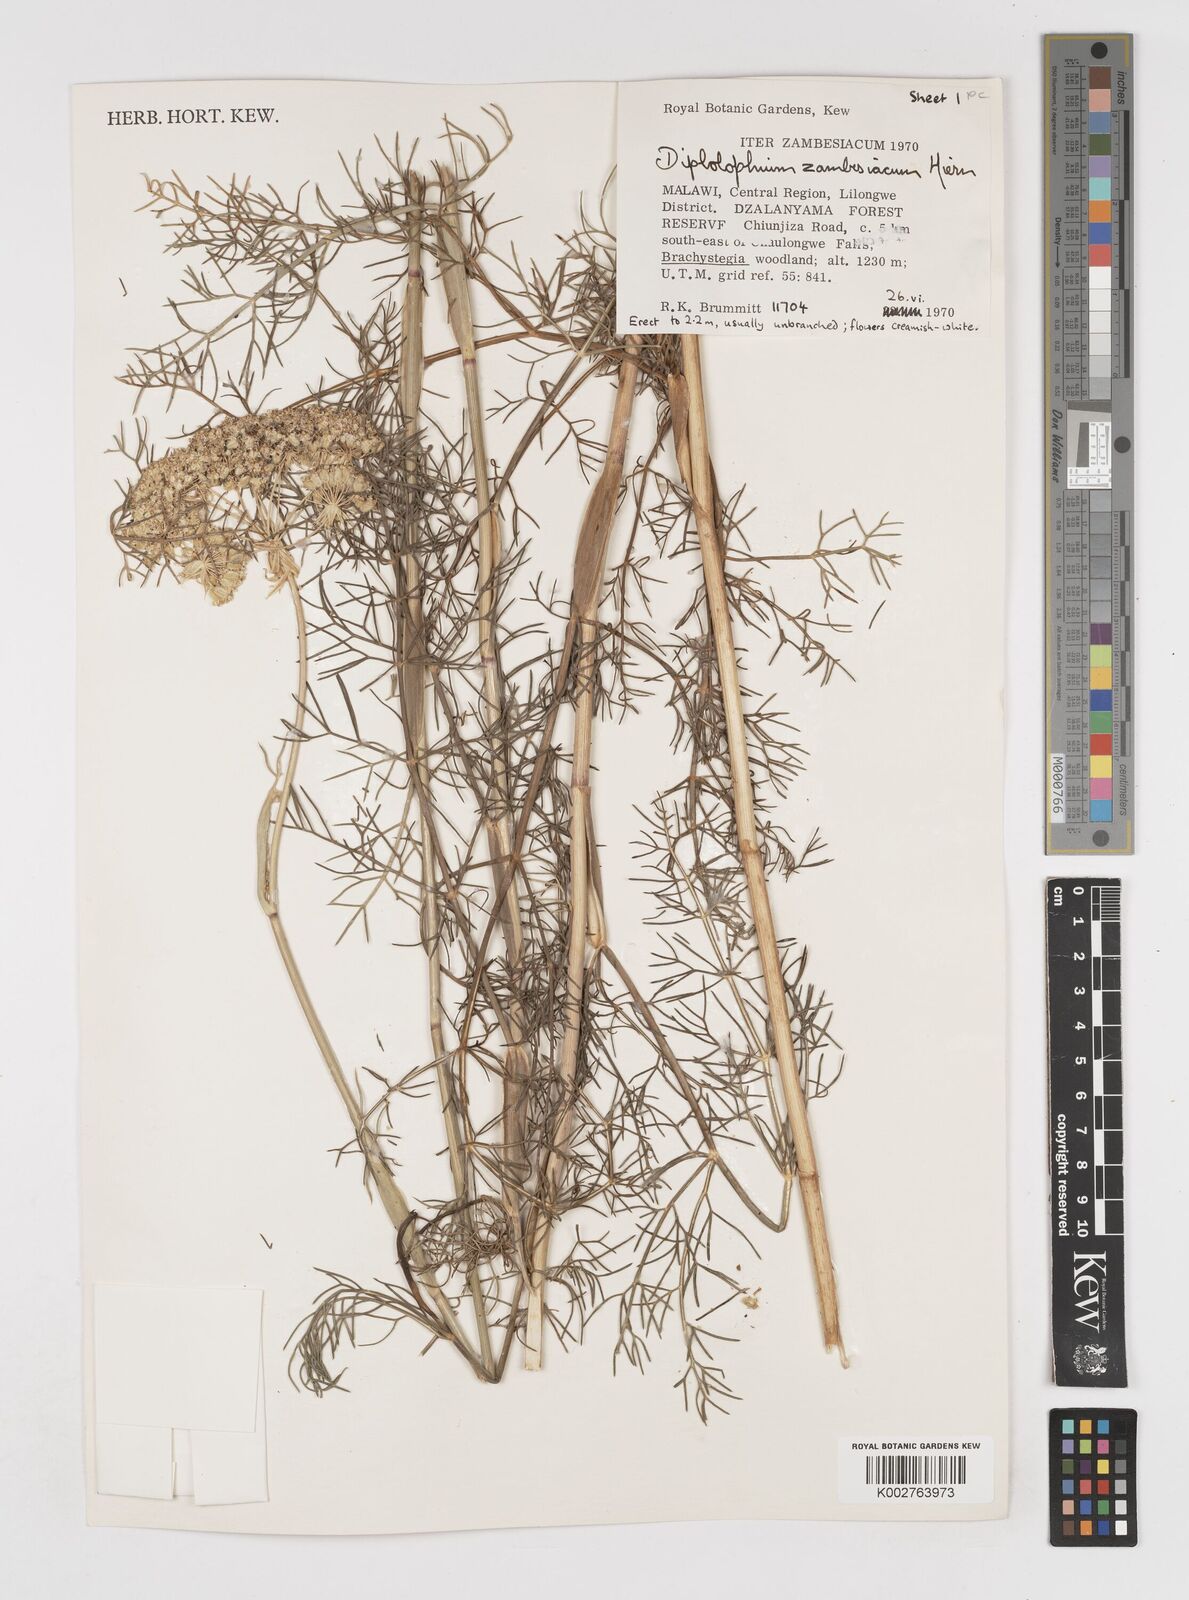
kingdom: Plantae
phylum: Tracheophyta
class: Magnoliopsida
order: Apiales
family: Apiaceae
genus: Diplolophium
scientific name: Diplolophium zambesianum
